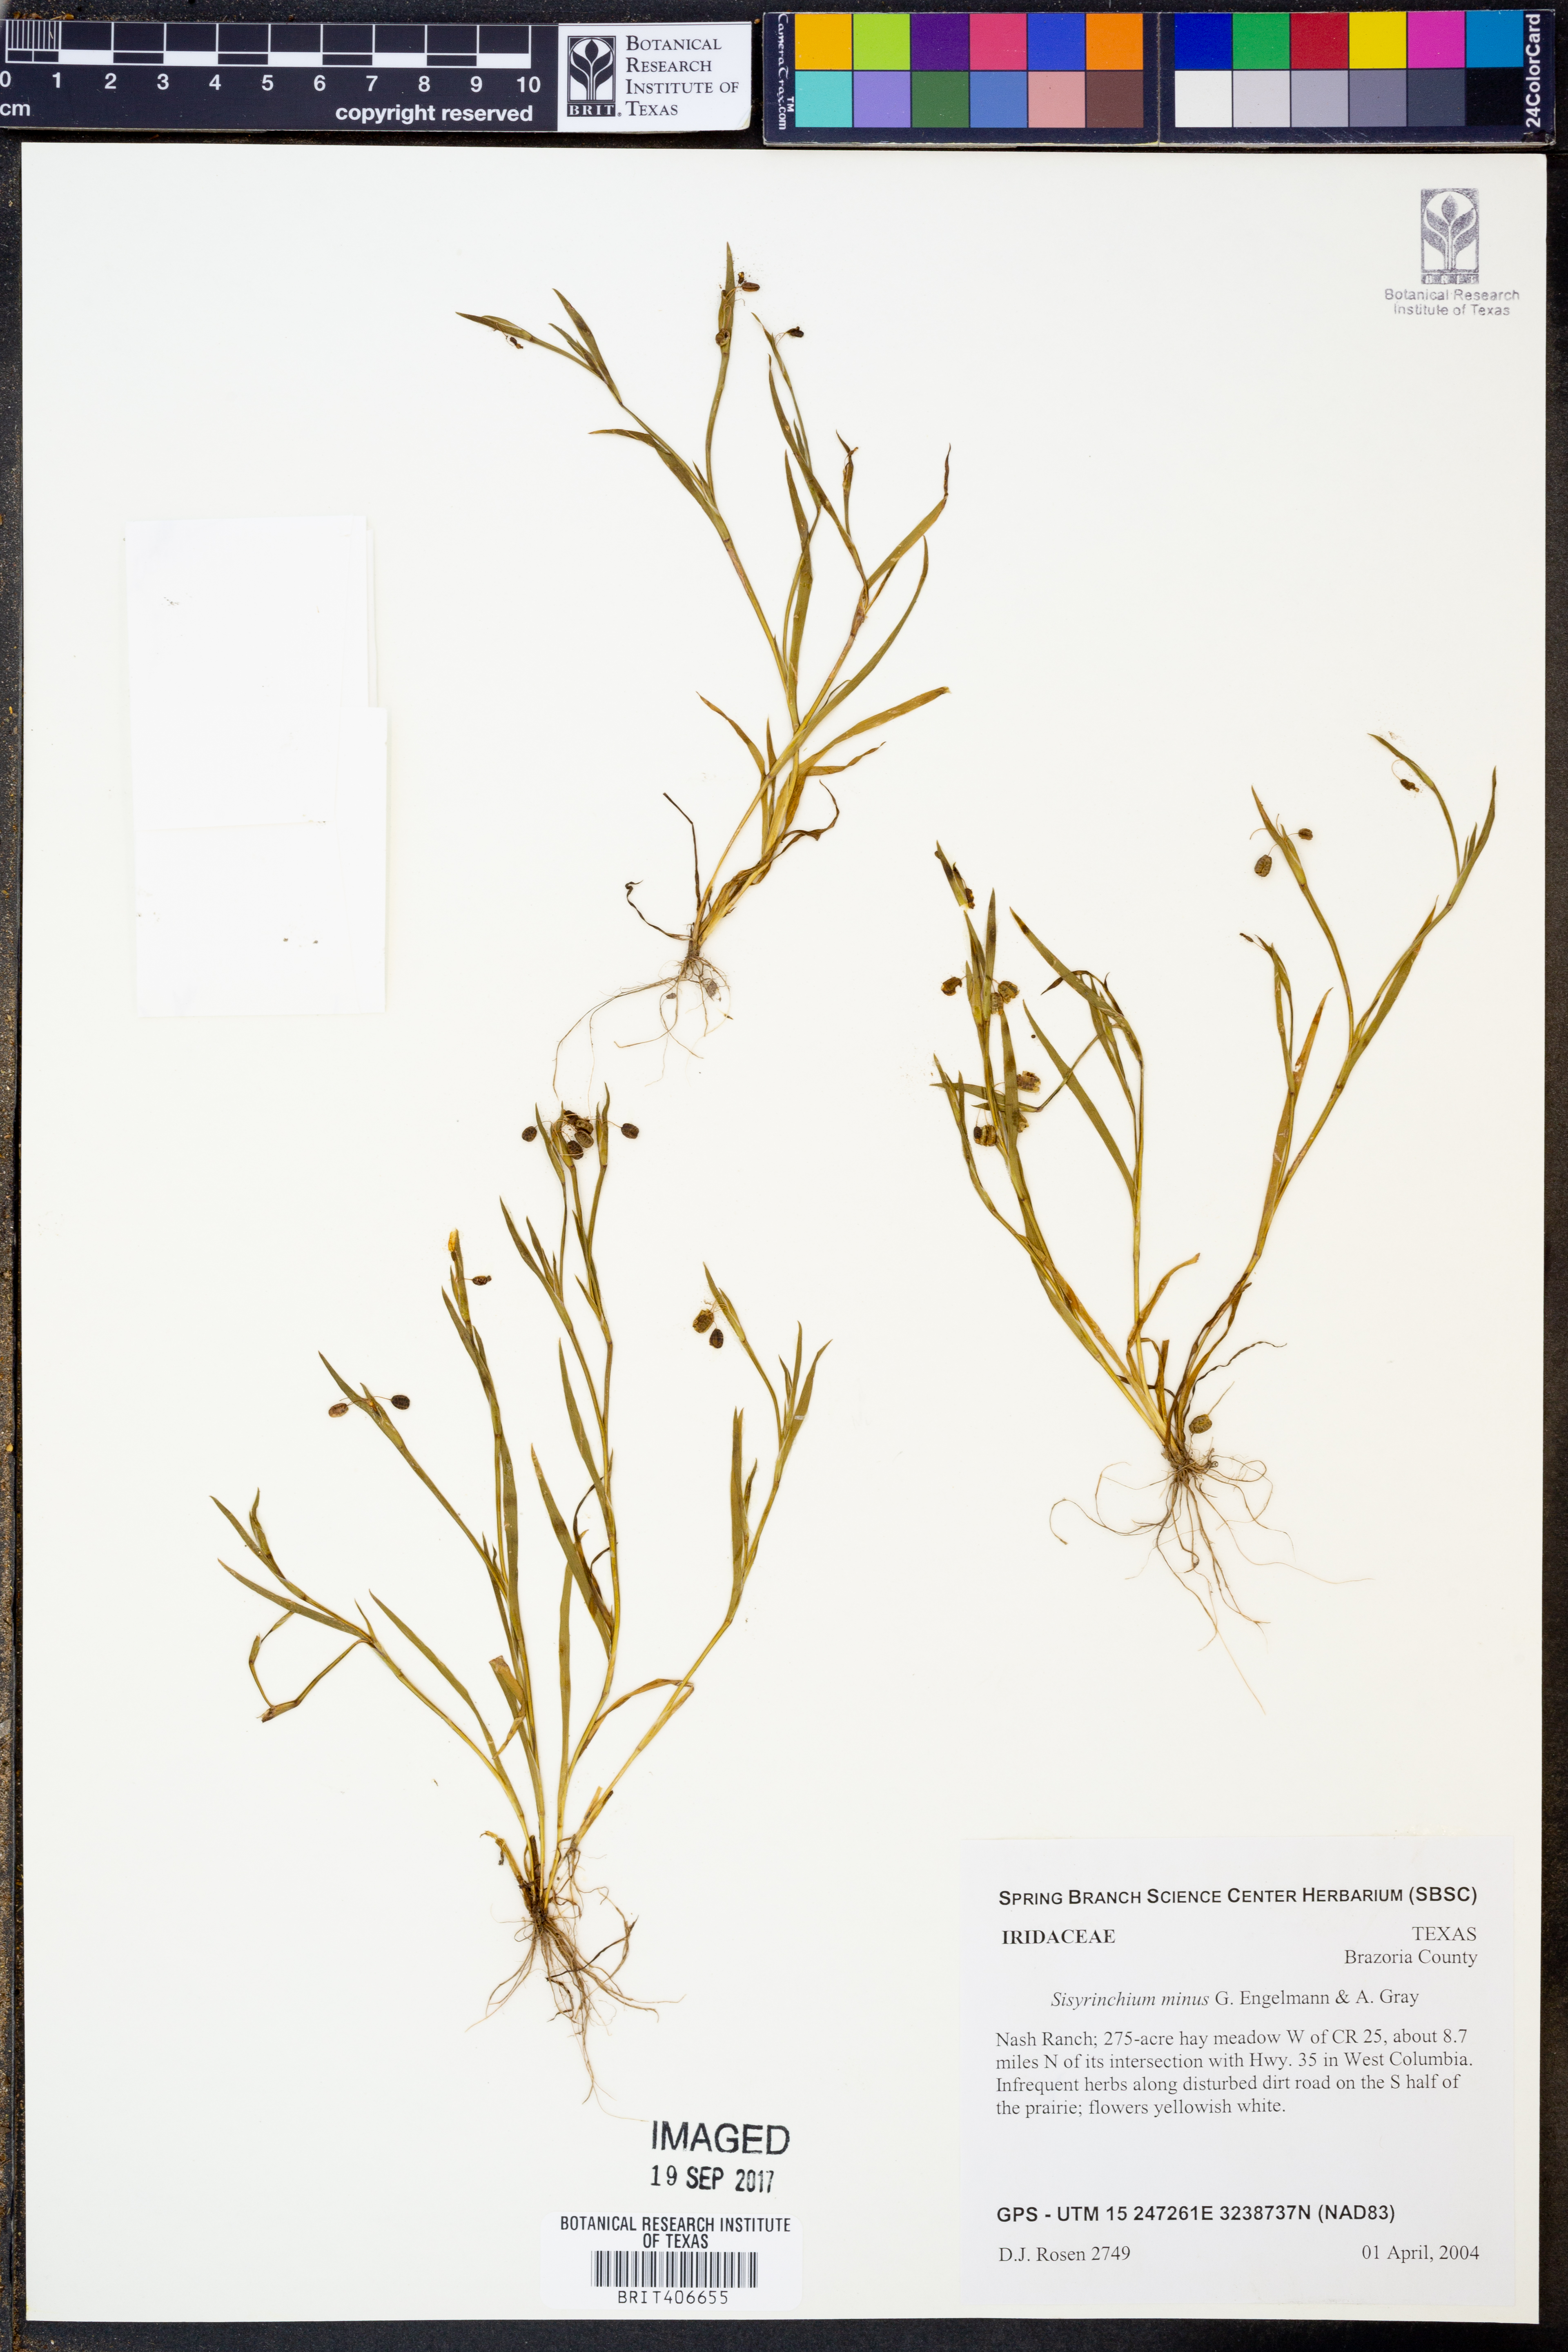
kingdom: Plantae
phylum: Tracheophyta
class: Liliopsida
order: Asparagales
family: Iridaceae
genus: Sisyrinchium
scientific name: Sisyrinchium minus
